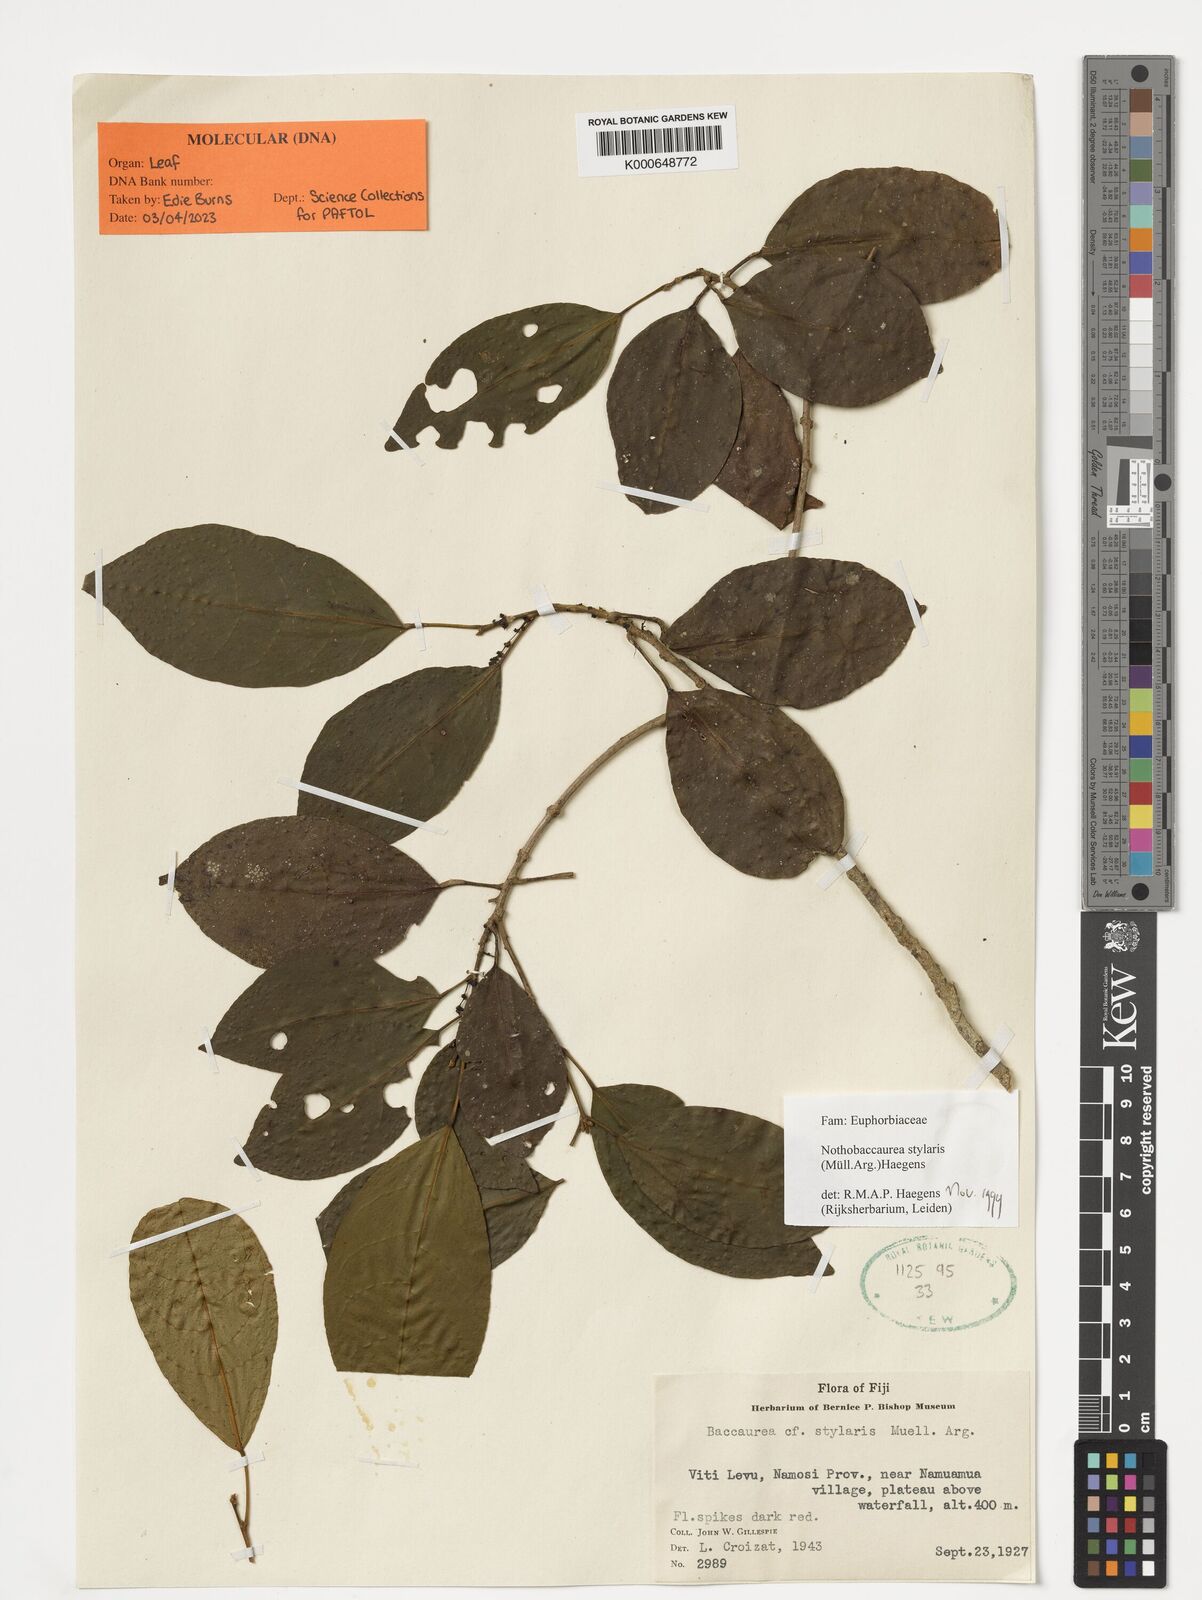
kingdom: Plantae
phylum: Tracheophyta
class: Magnoliopsida
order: Malpighiales
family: Phyllanthaceae
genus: Nothobaccaurea
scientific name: Nothobaccaurea stylaris
